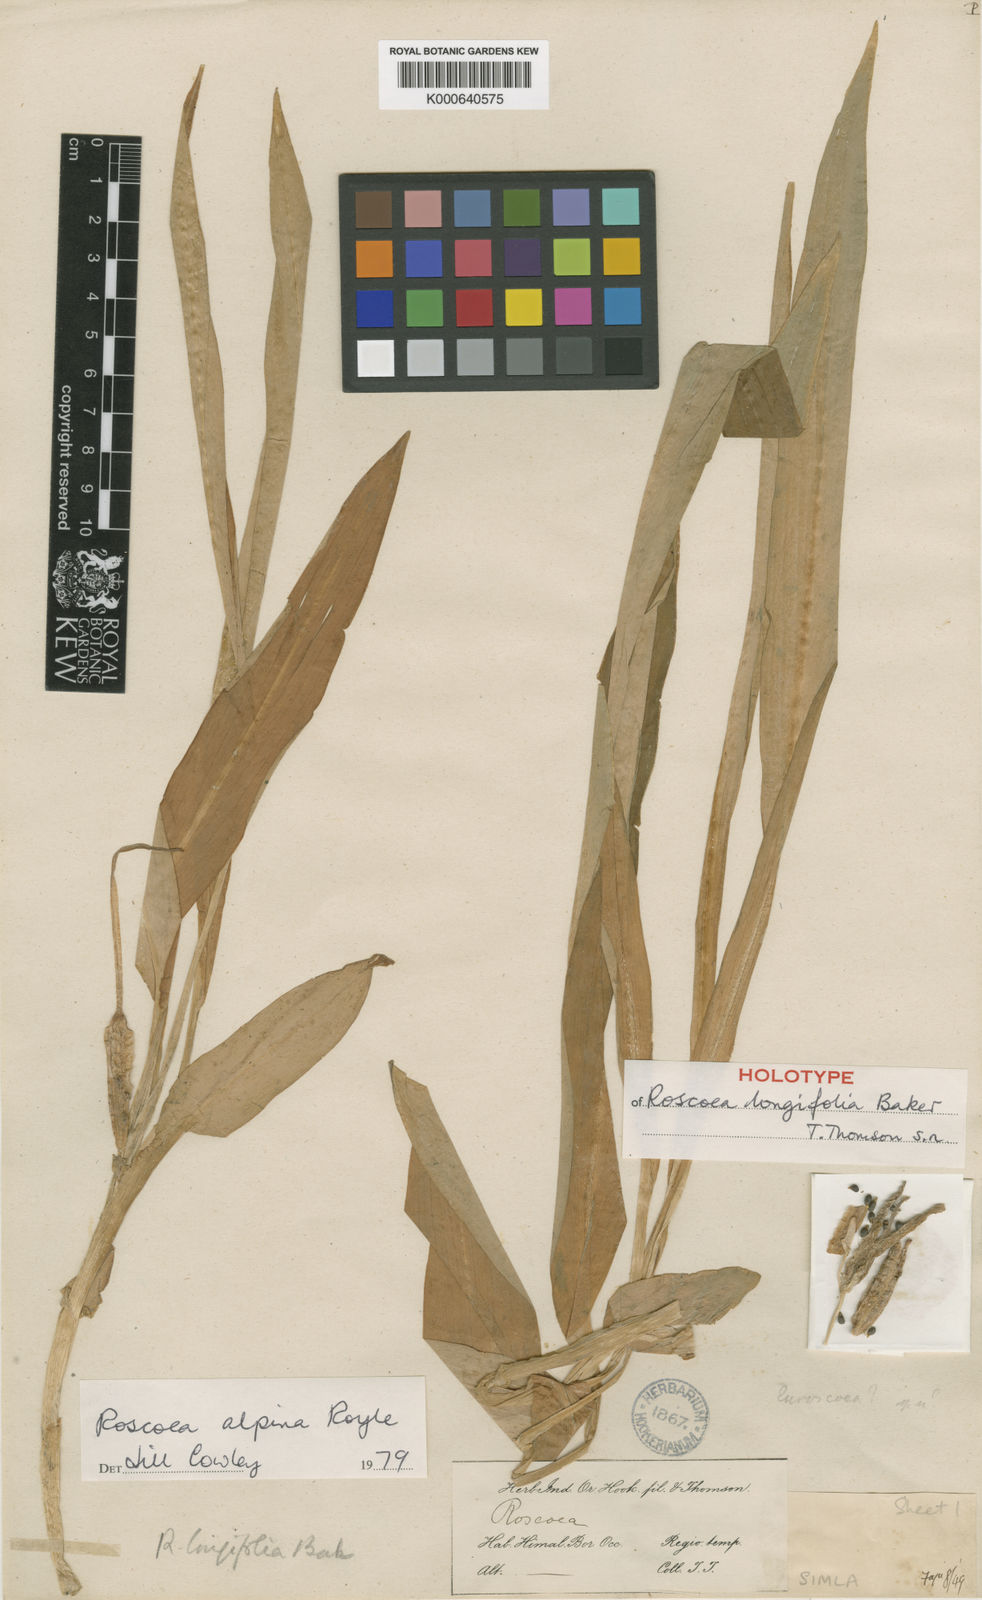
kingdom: Plantae
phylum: Tracheophyta
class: Liliopsida
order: Zingiberales
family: Zingiberaceae
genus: Roscoea
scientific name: Roscoea alpina
